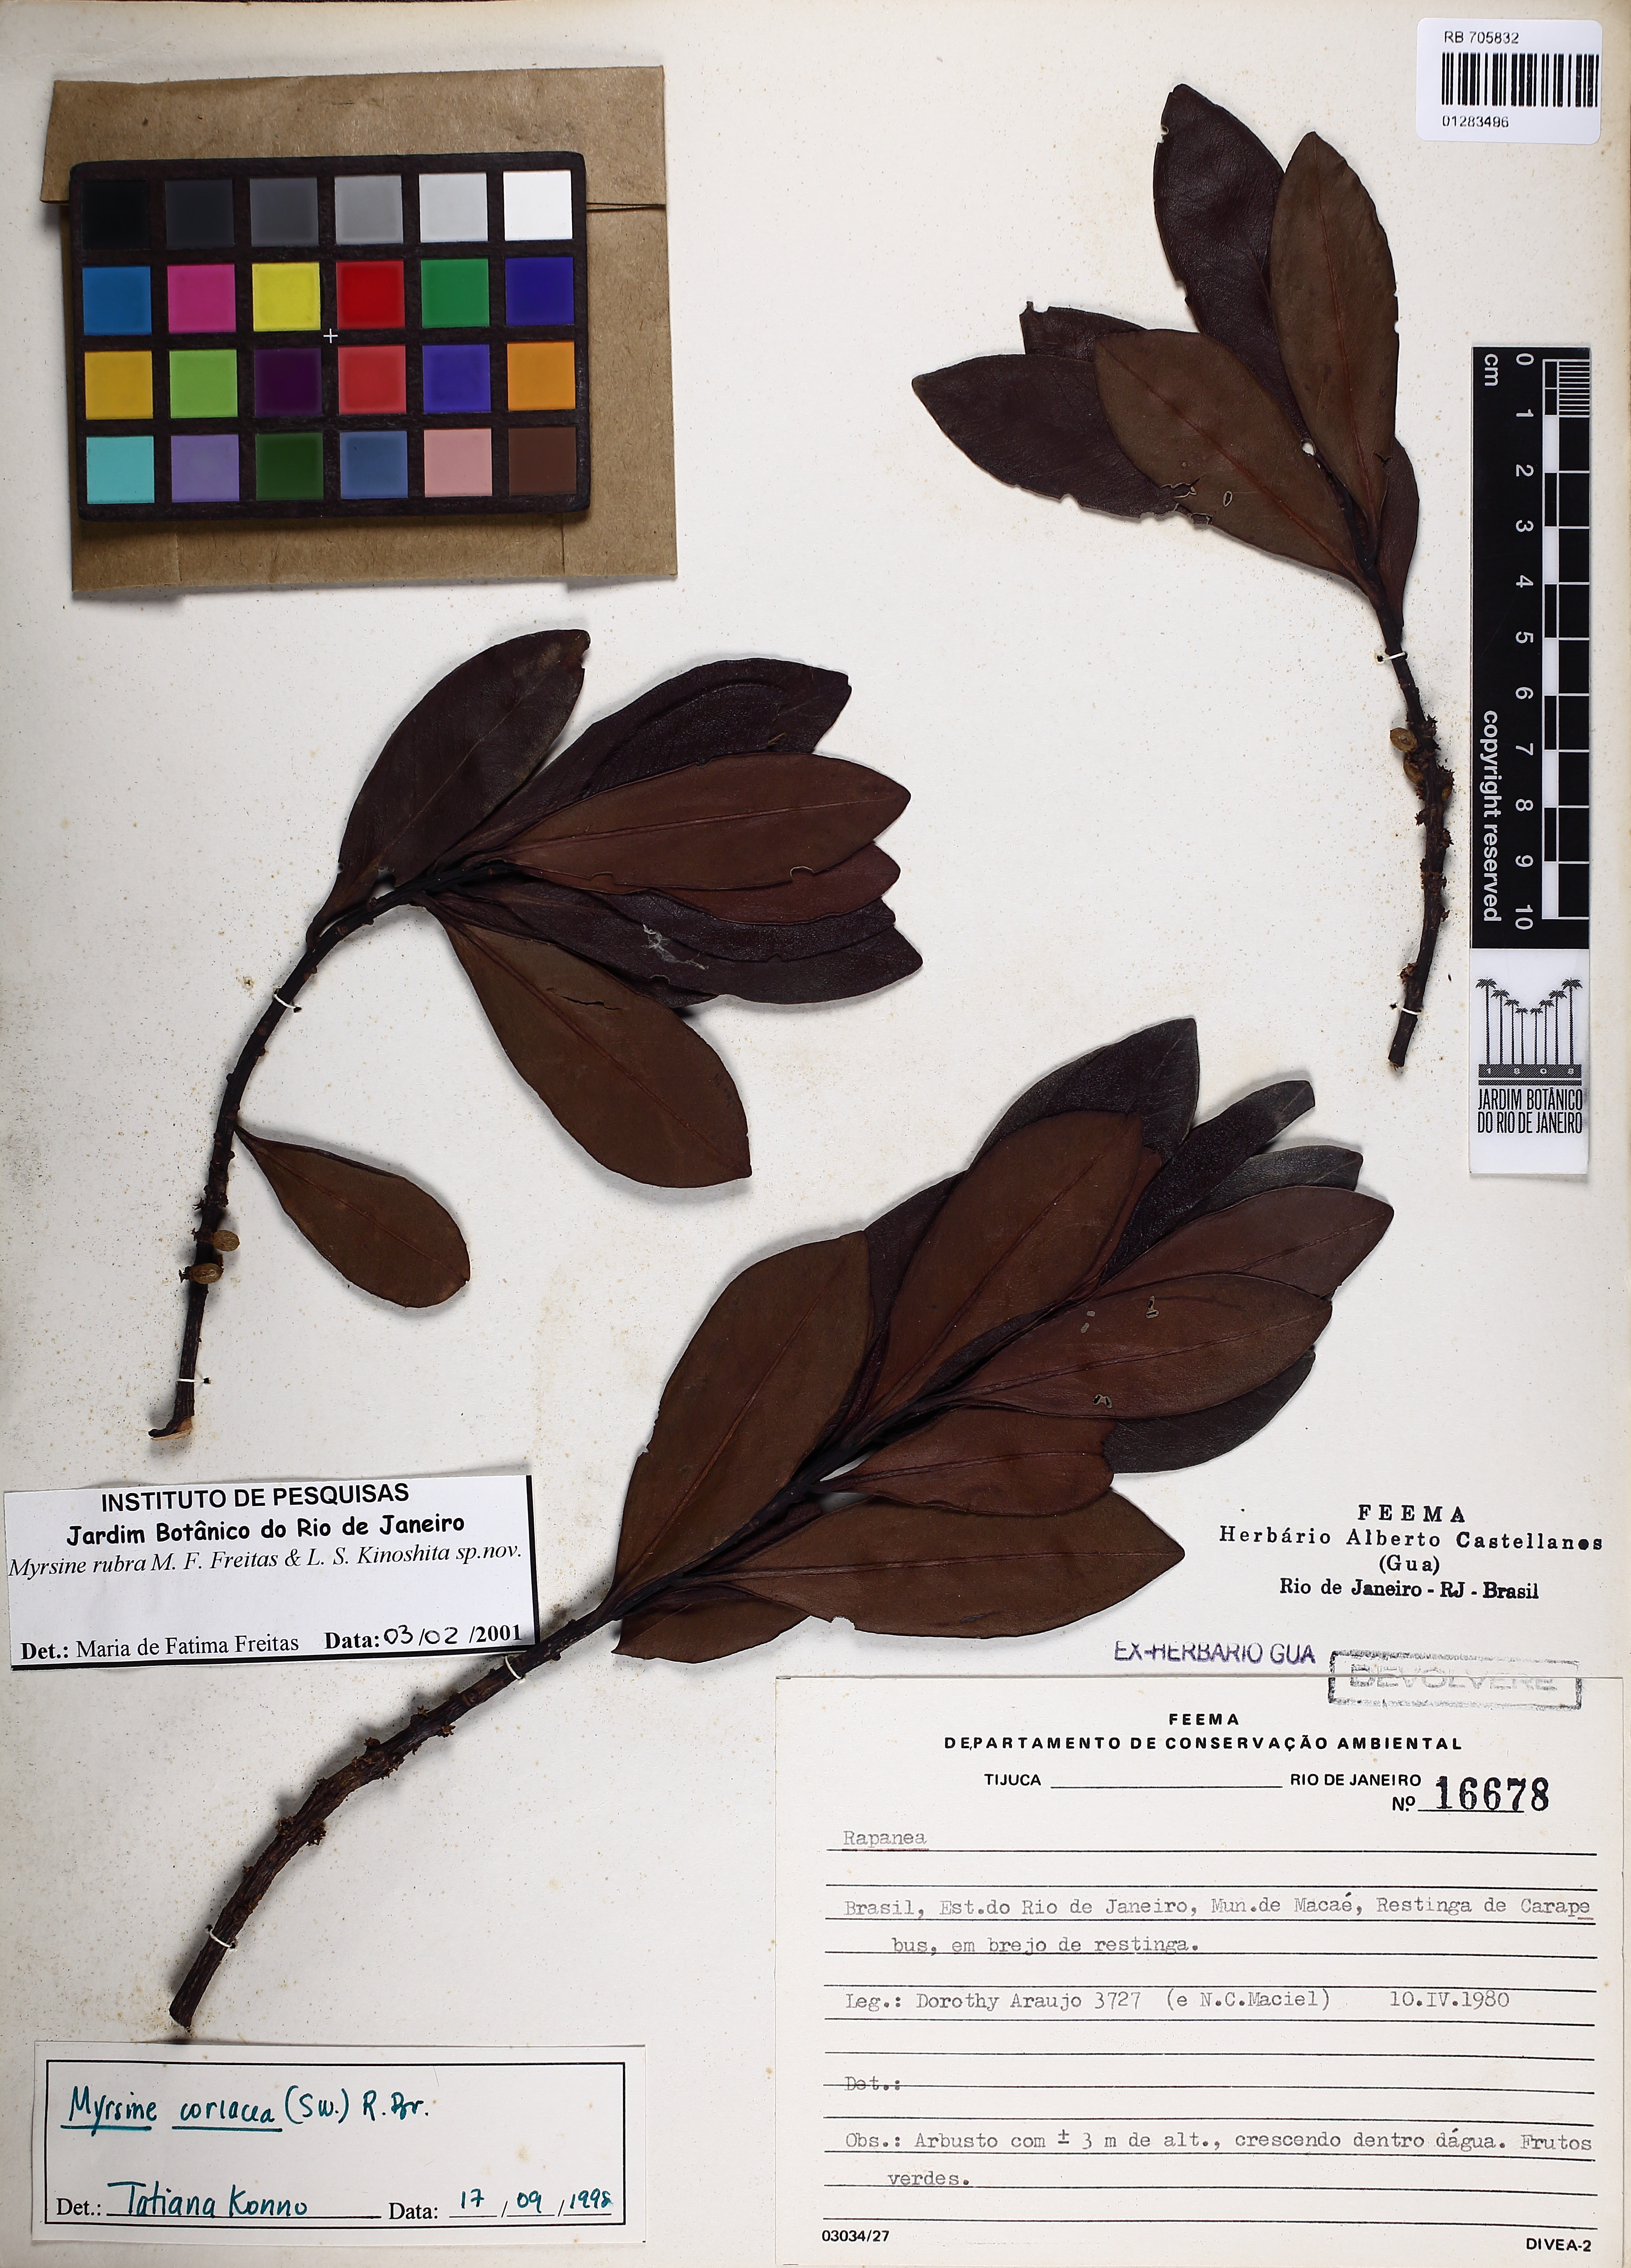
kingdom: Plantae
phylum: Tracheophyta
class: Magnoliopsida
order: Ericales
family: Primulaceae
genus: Myrsine
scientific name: Myrsine rubra
